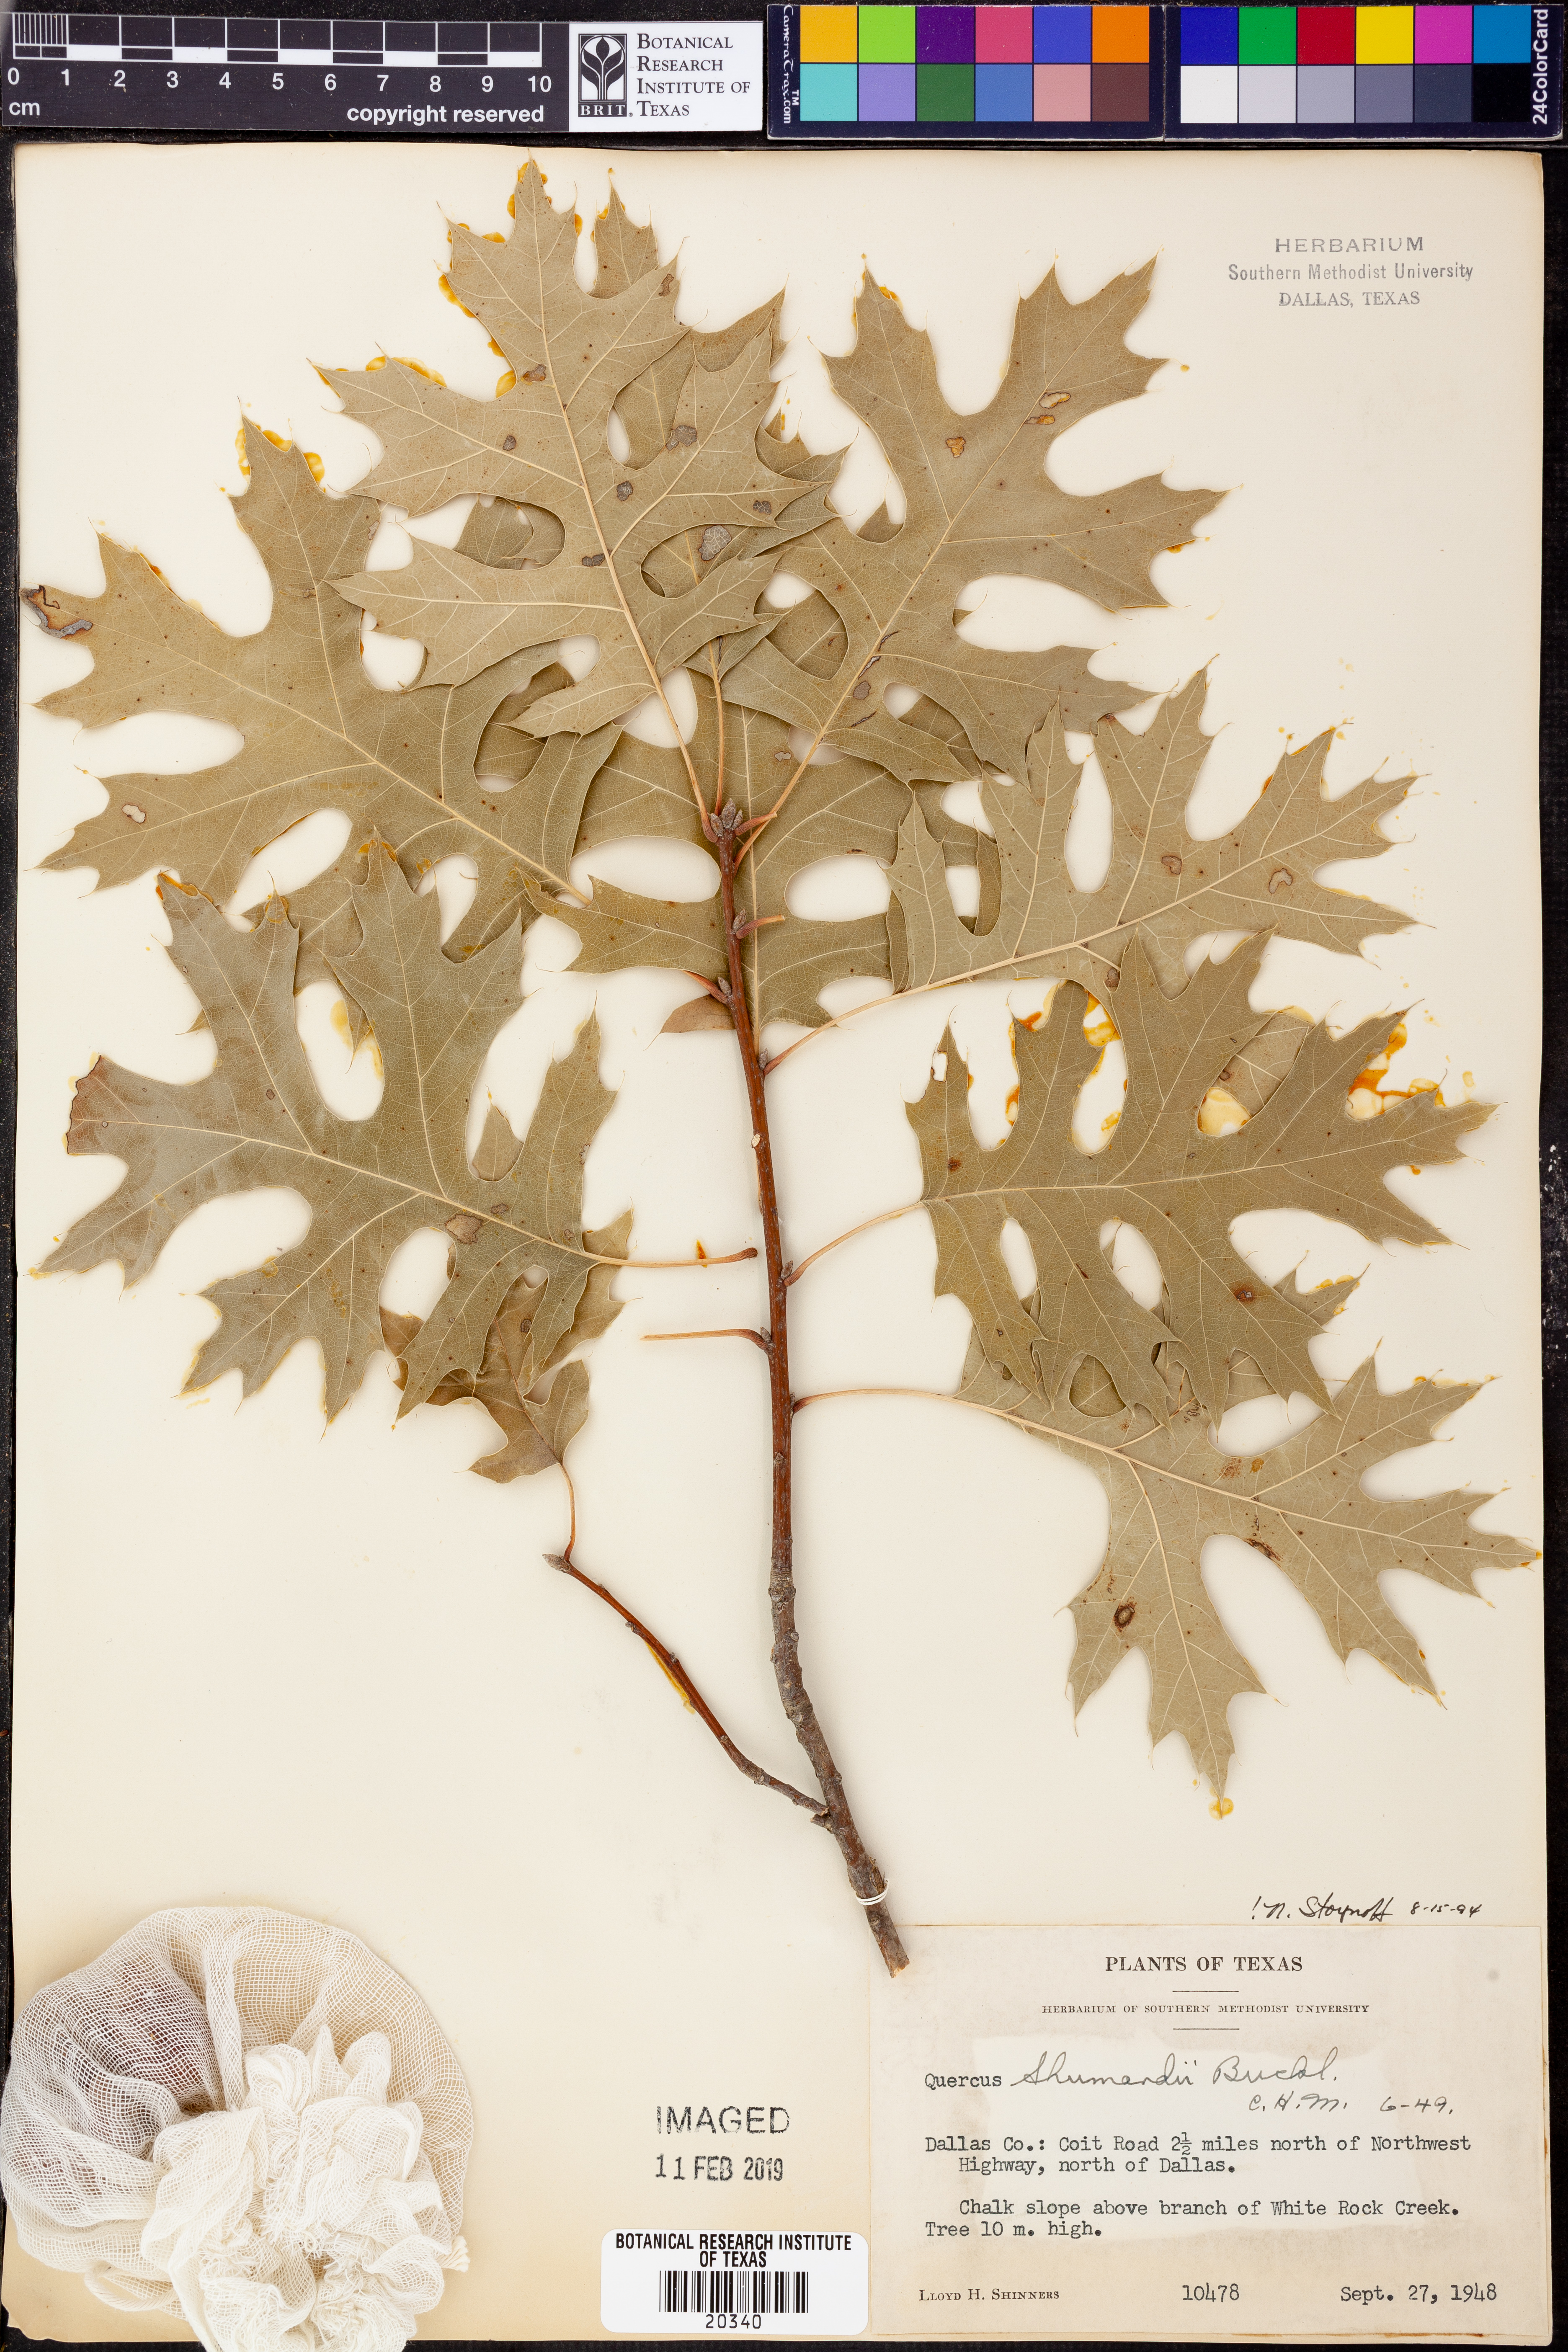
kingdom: Plantae
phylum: Tracheophyta
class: Magnoliopsida
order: Fagales
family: Fagaceae
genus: Quercus
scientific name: Quercus shumardii
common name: Shumard oak
